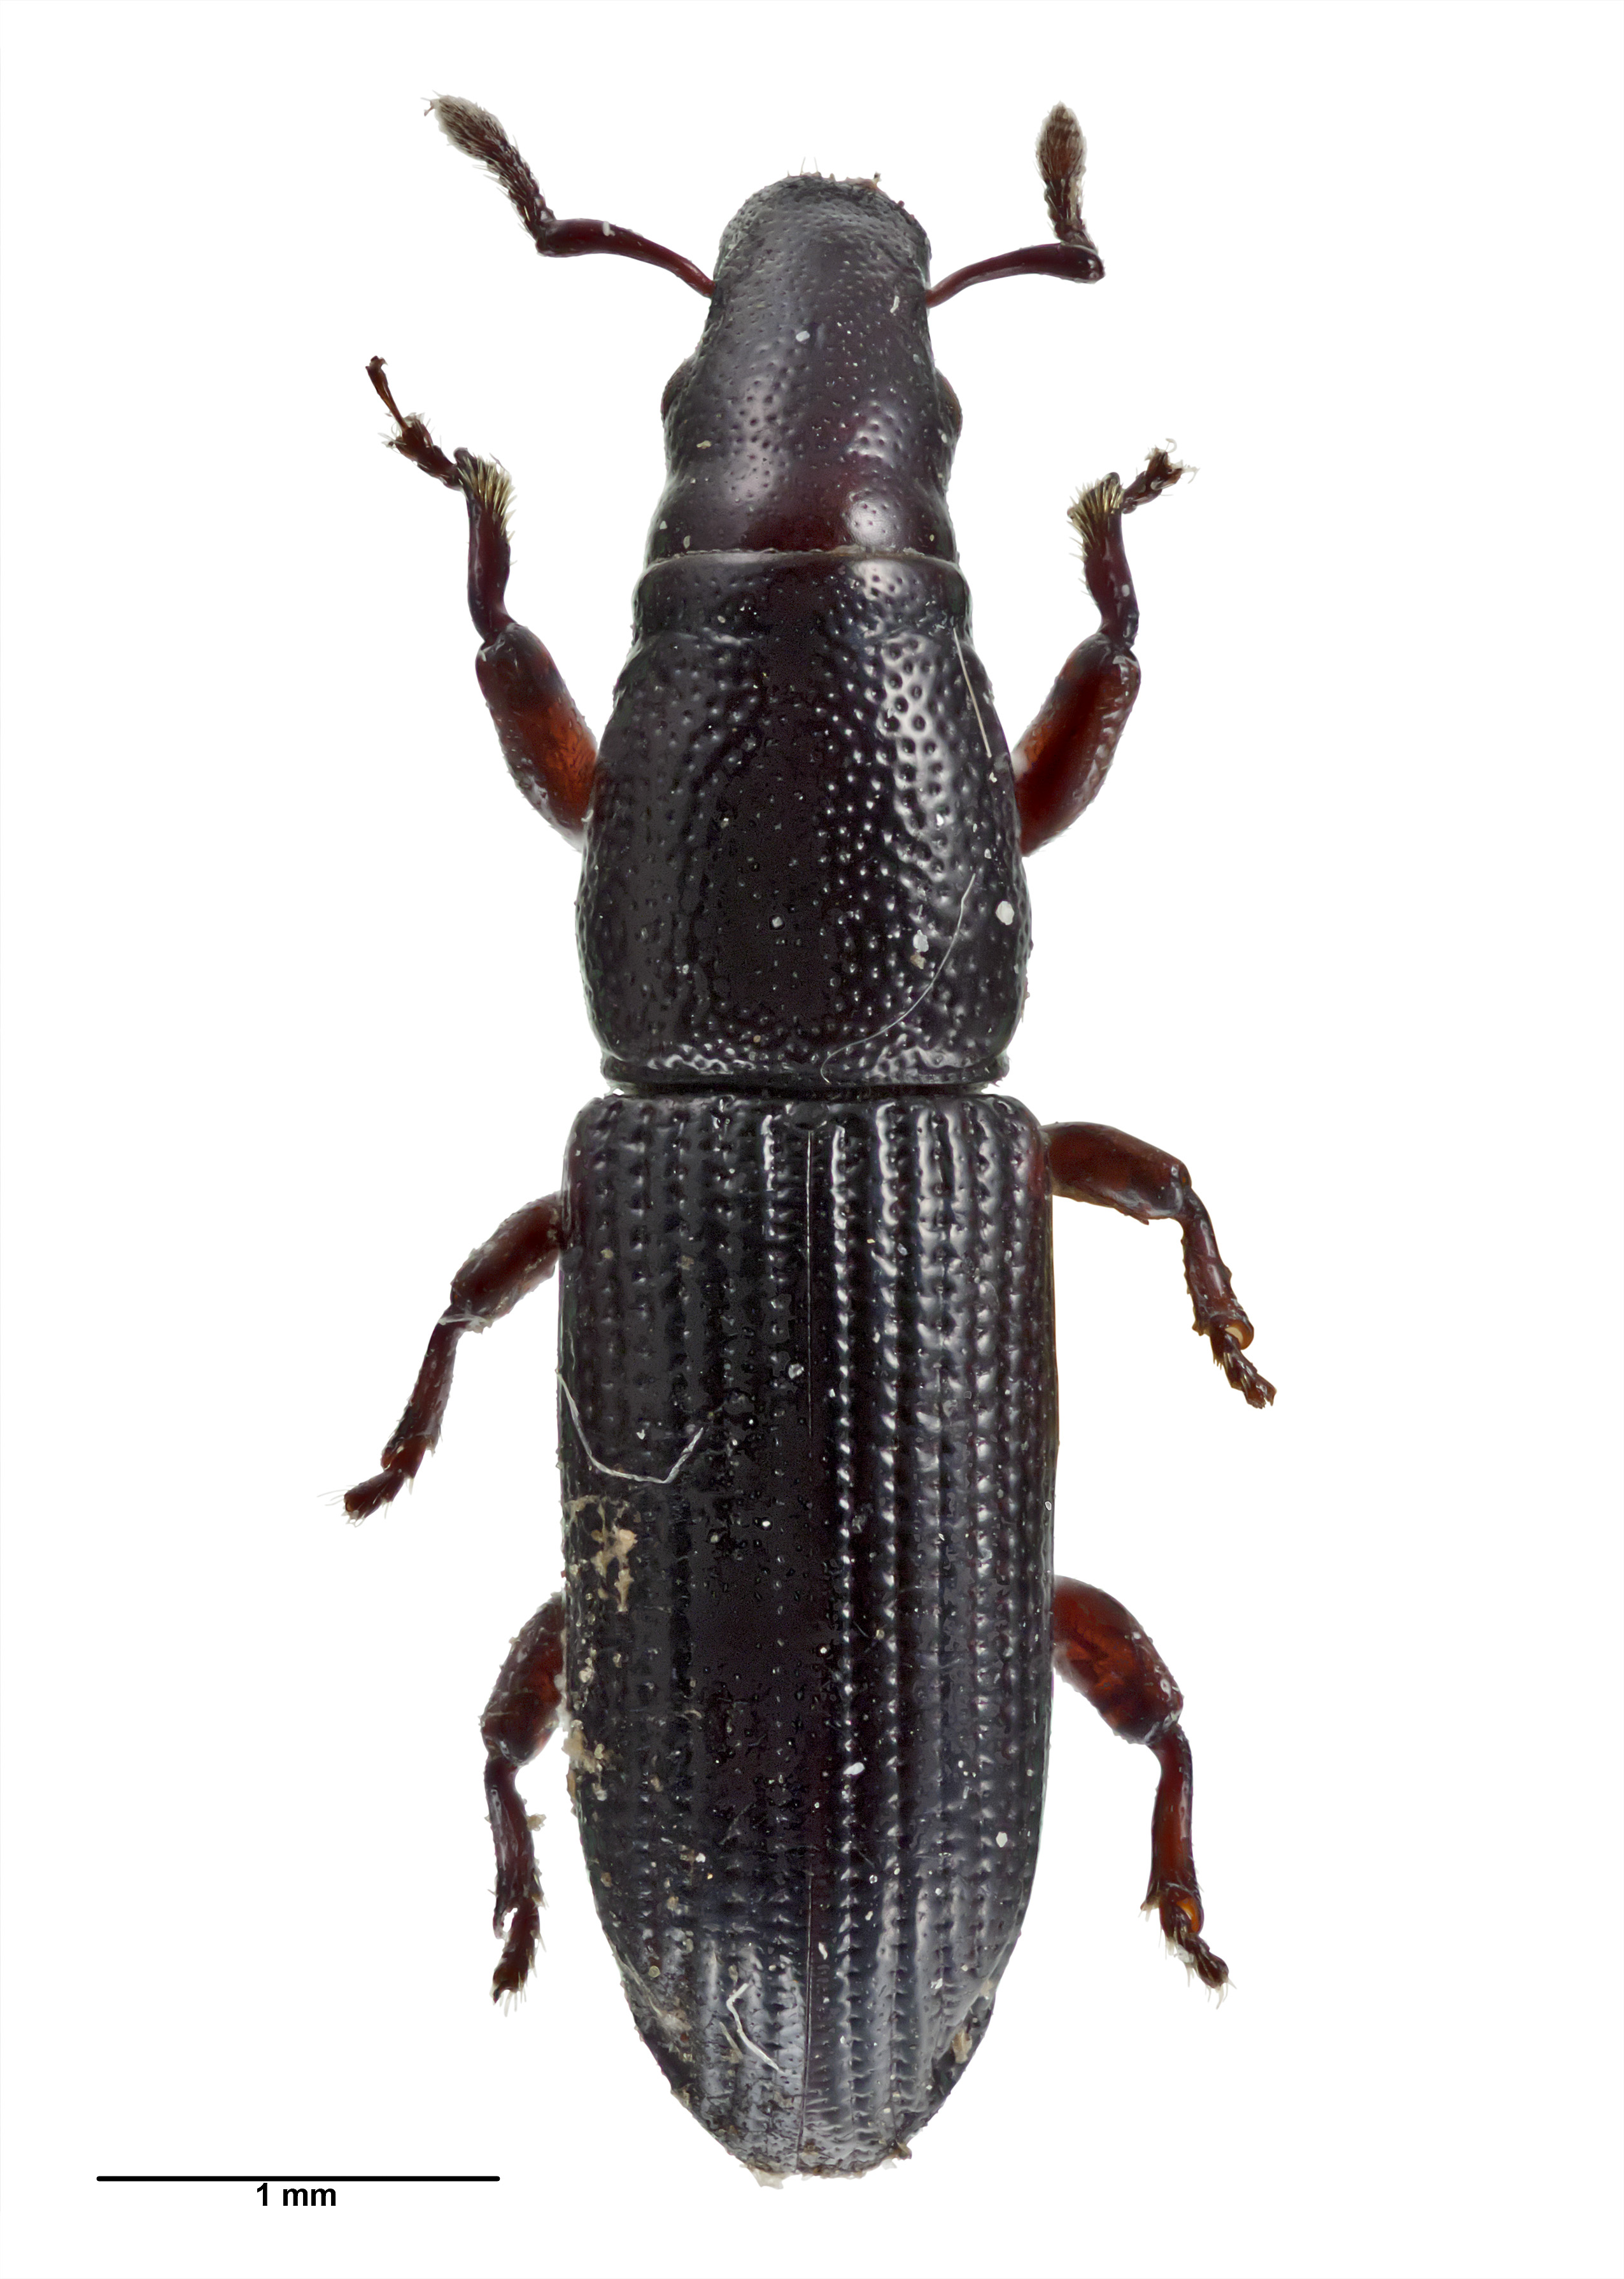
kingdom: Animalia
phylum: Arthropoda
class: Insecta
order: Coleoptera
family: Curculionidae
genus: Pentamimus
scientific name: Pentamimus
